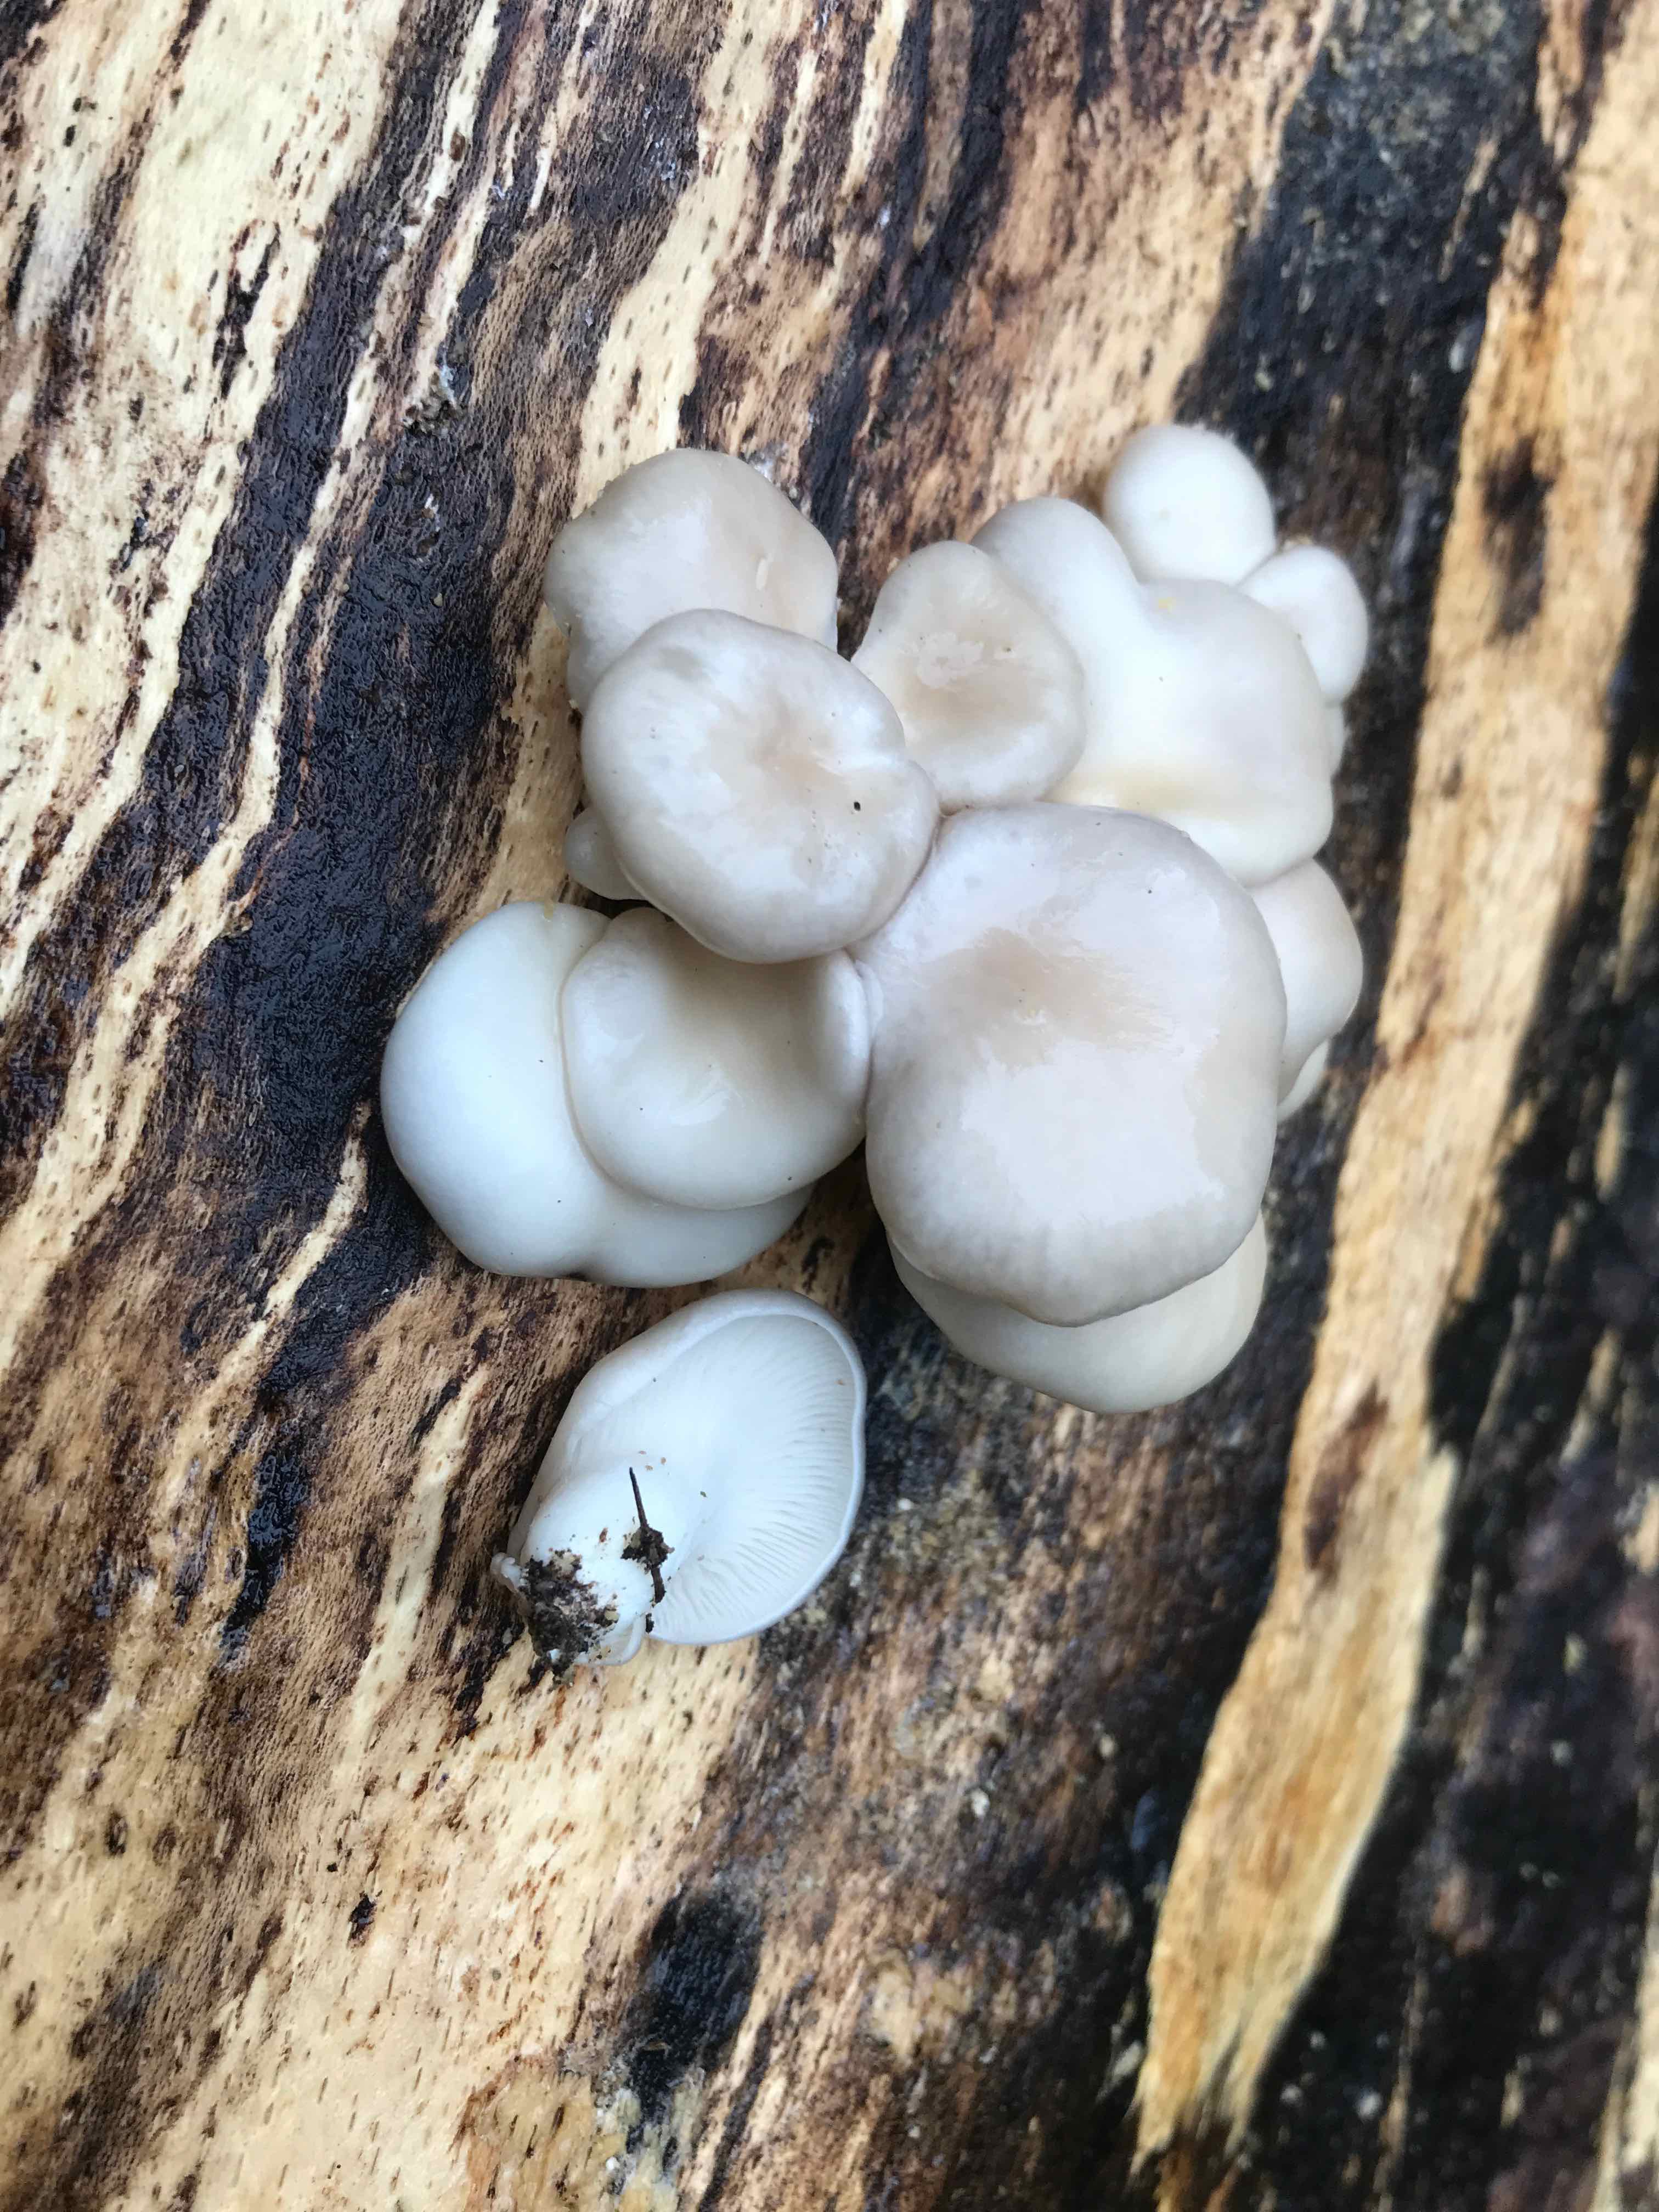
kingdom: Fungi
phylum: Basidiomycota
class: Agaricomycetes
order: Agaricales
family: Pleurotaceae
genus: Pleurotus
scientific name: Pleurotus pulmonarius
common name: sommer-østershat
